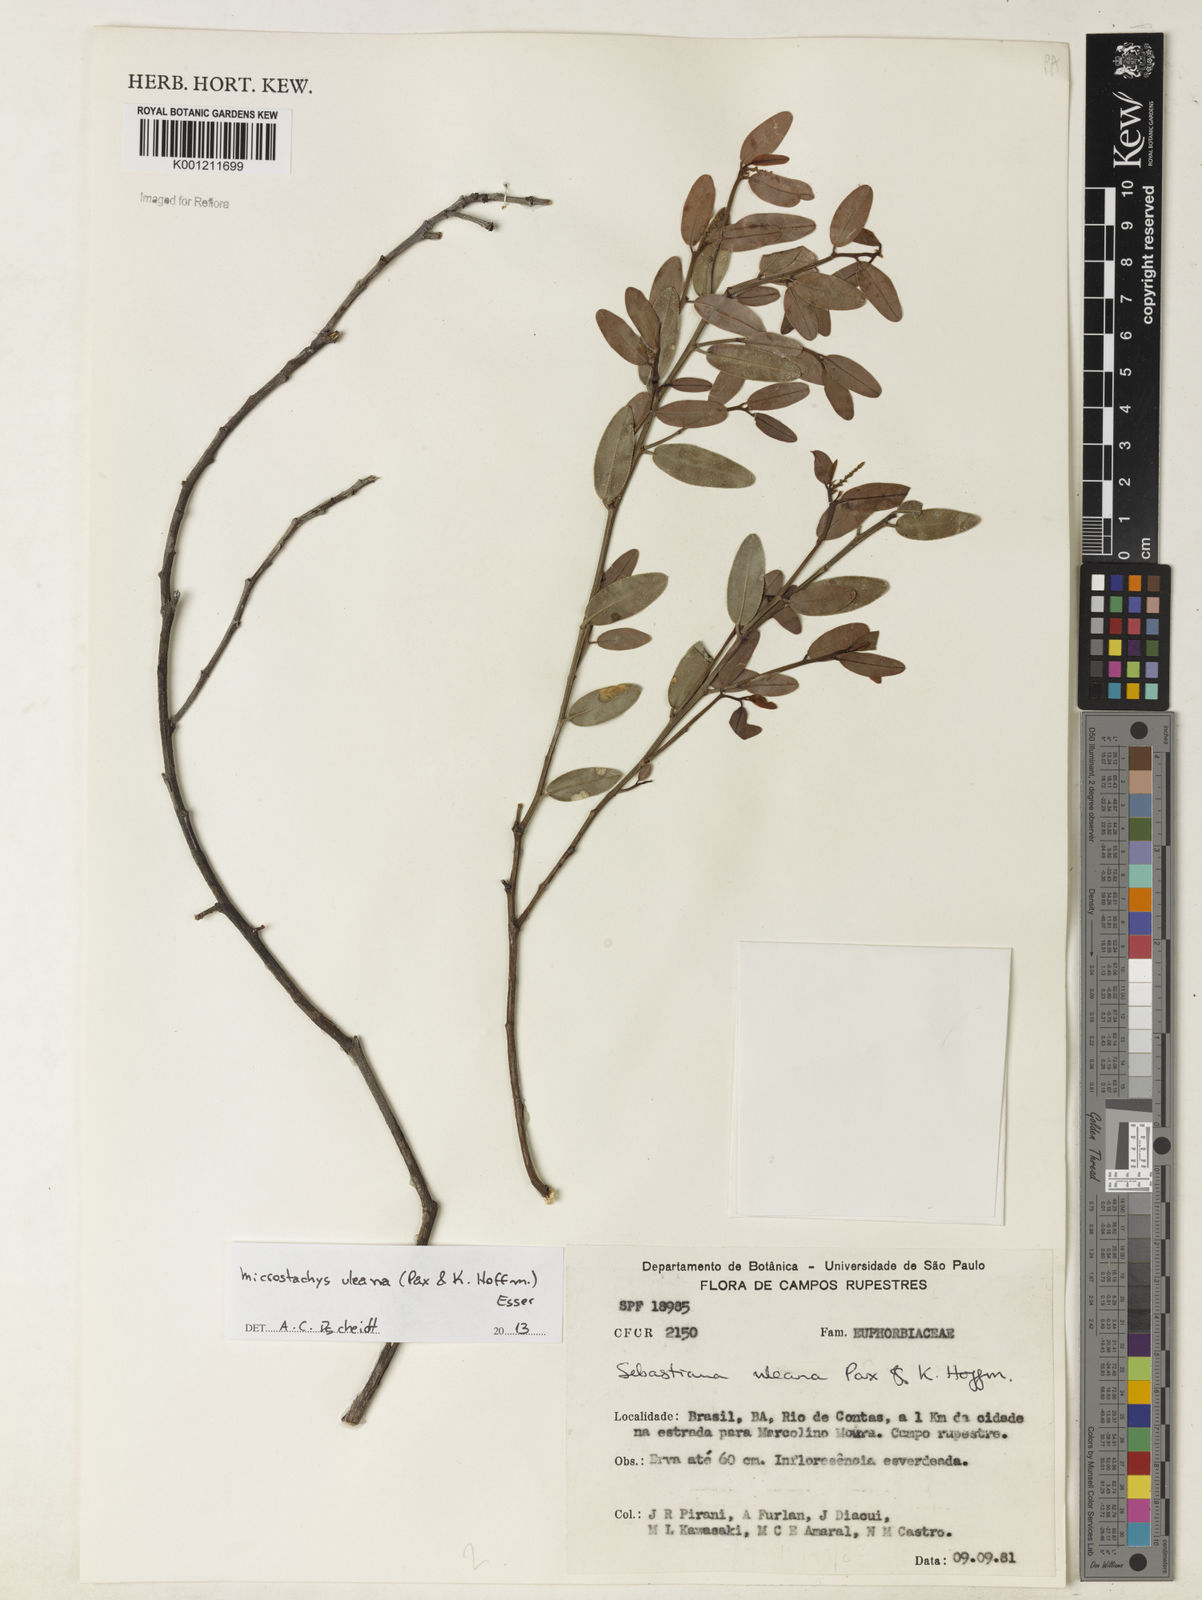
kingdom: Plantae
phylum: Tracheophyta
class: Magnoliopsida
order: Malpighiales
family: Euphorbiaceae
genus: Microstachys
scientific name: Microstachys uleana
